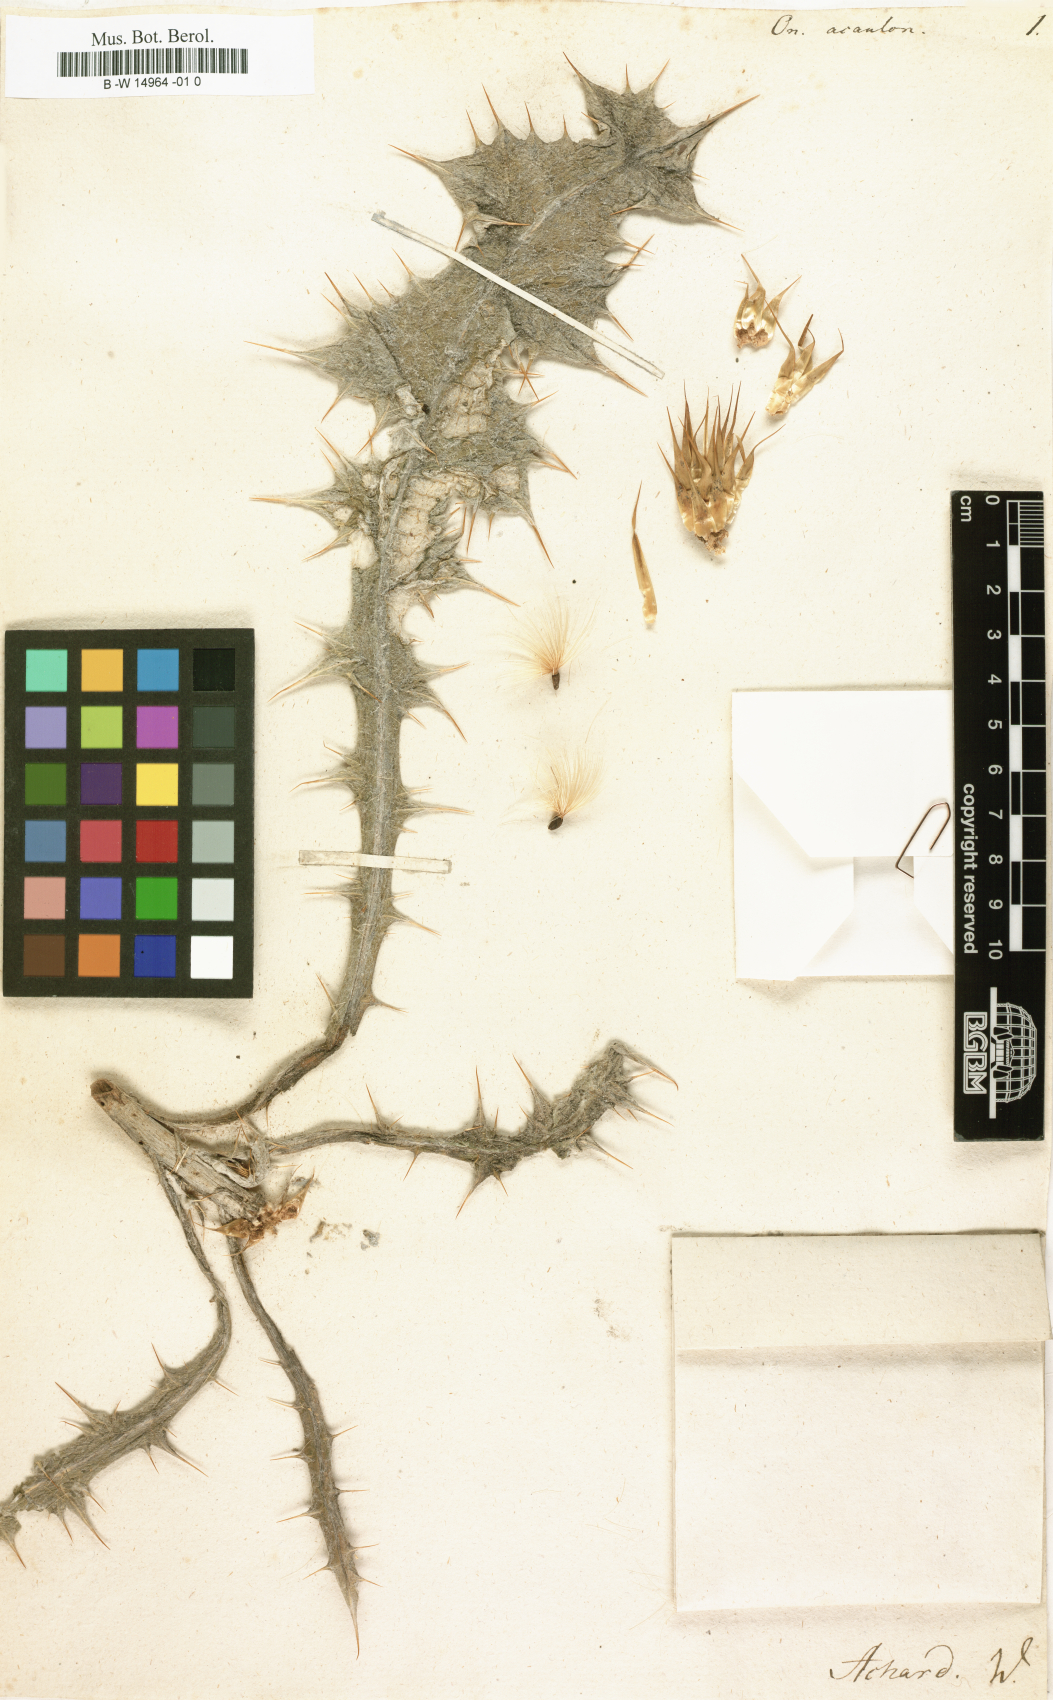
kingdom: Plantae
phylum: Tracheophyta
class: Magnoliopsida
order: Asterales
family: Asteraceae
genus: Onopordum
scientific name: Onopordum acaulon
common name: Horse thistle
